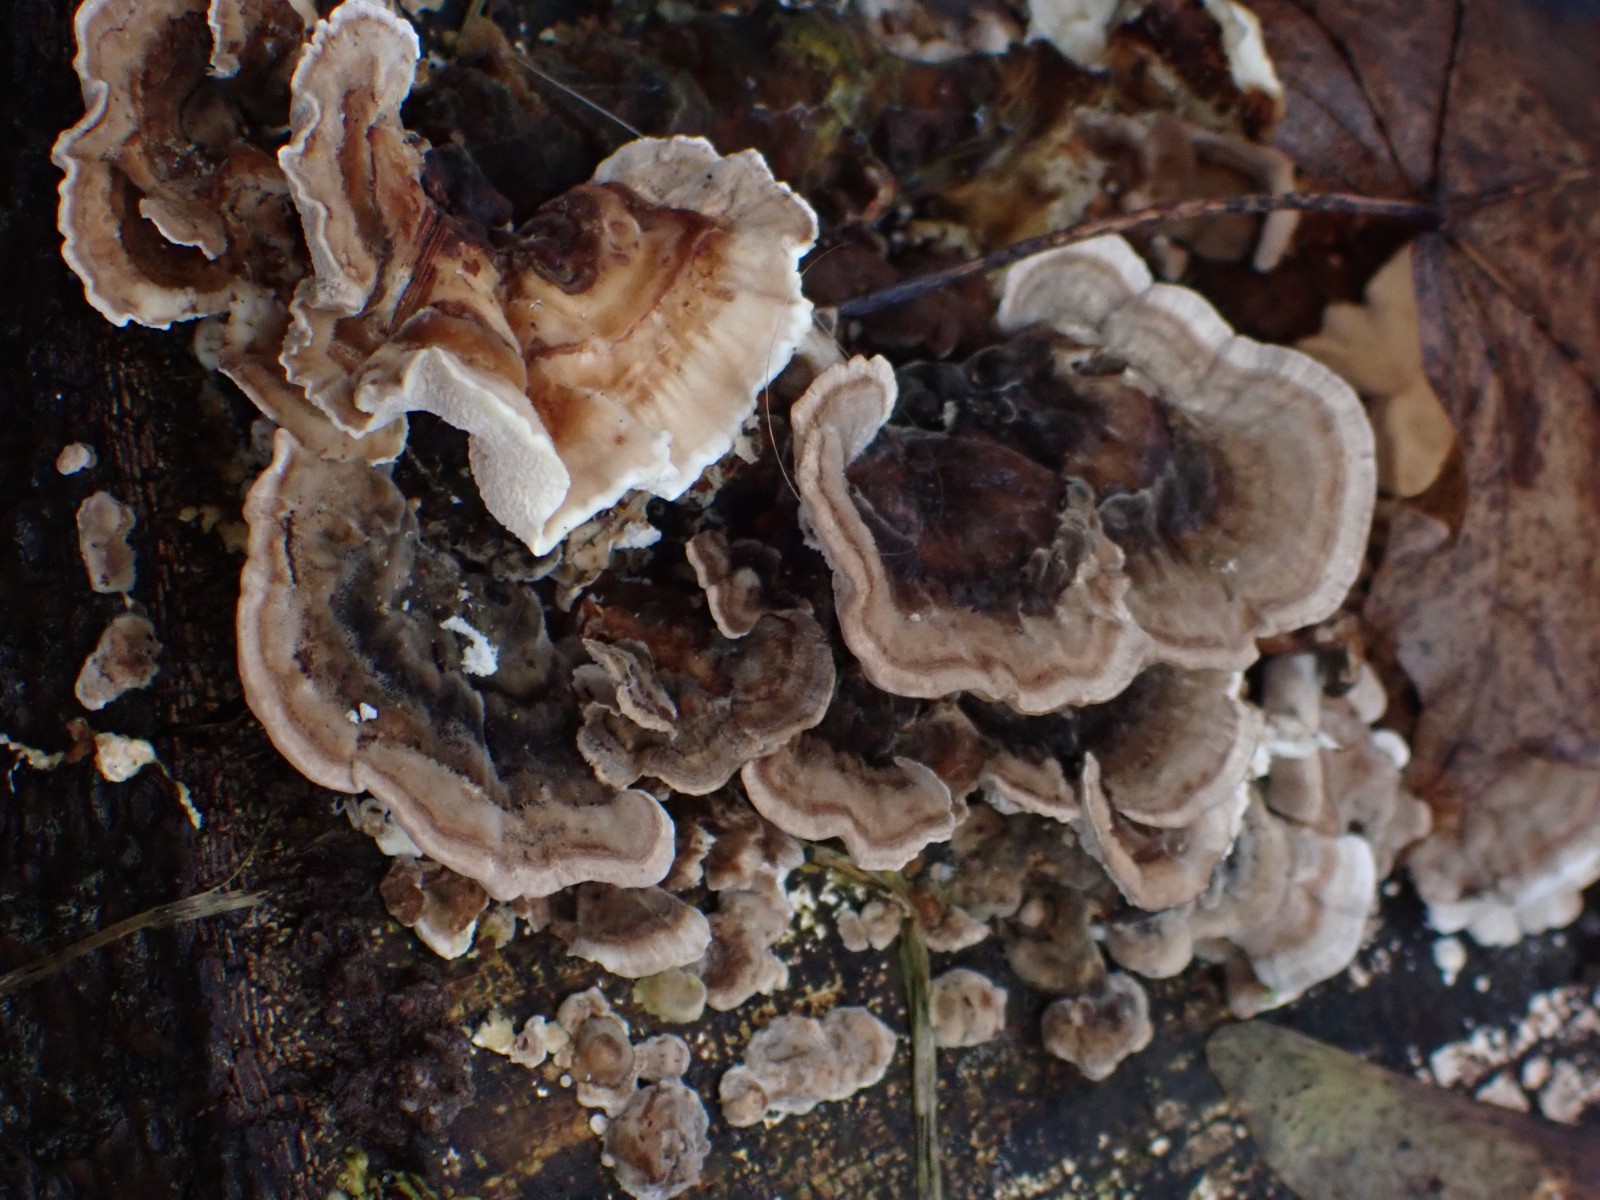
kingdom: Fungi
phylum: Basidiomycota
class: Agaricomycetes
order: Polyporales
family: Polyporaceae
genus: Trametes
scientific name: Trametes versicolor
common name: broget læderporesvamp
